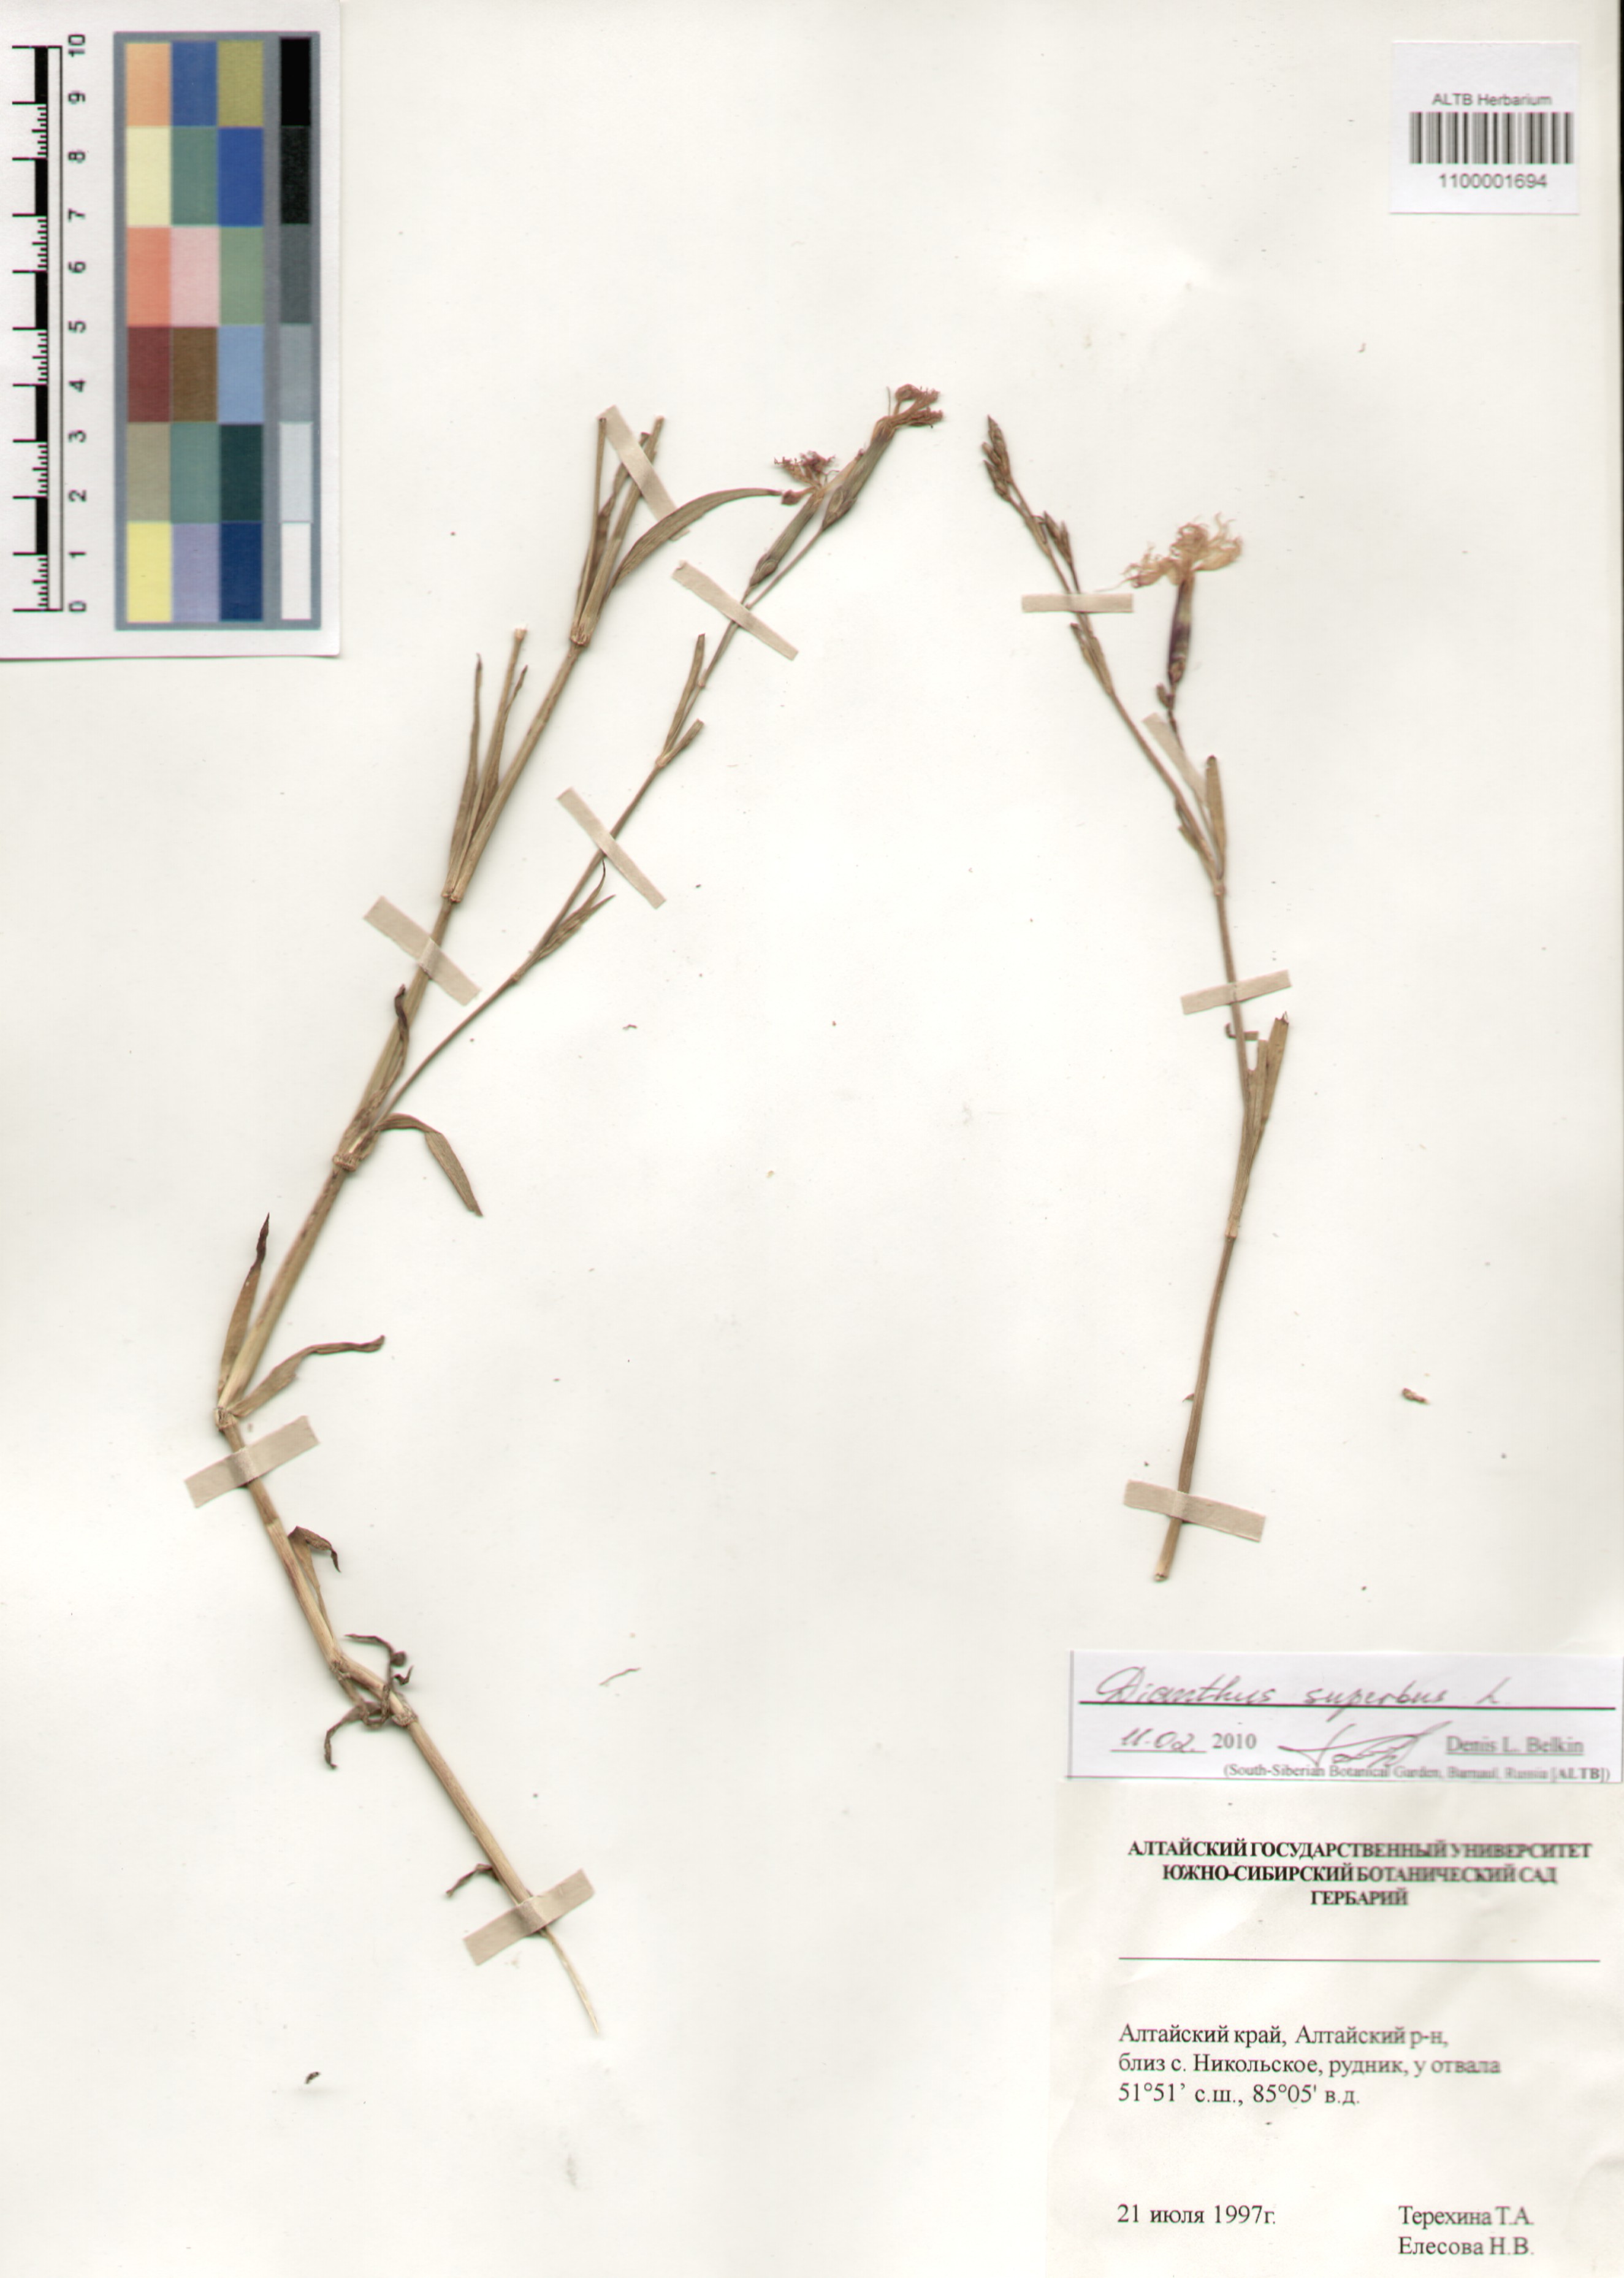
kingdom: Plantae
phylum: Tracheophyta
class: Magnoliopsida
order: Caryophyllales
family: Caryophyllaceae
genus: Dianthus
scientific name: Dianthus superbus
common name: Fringed pink
